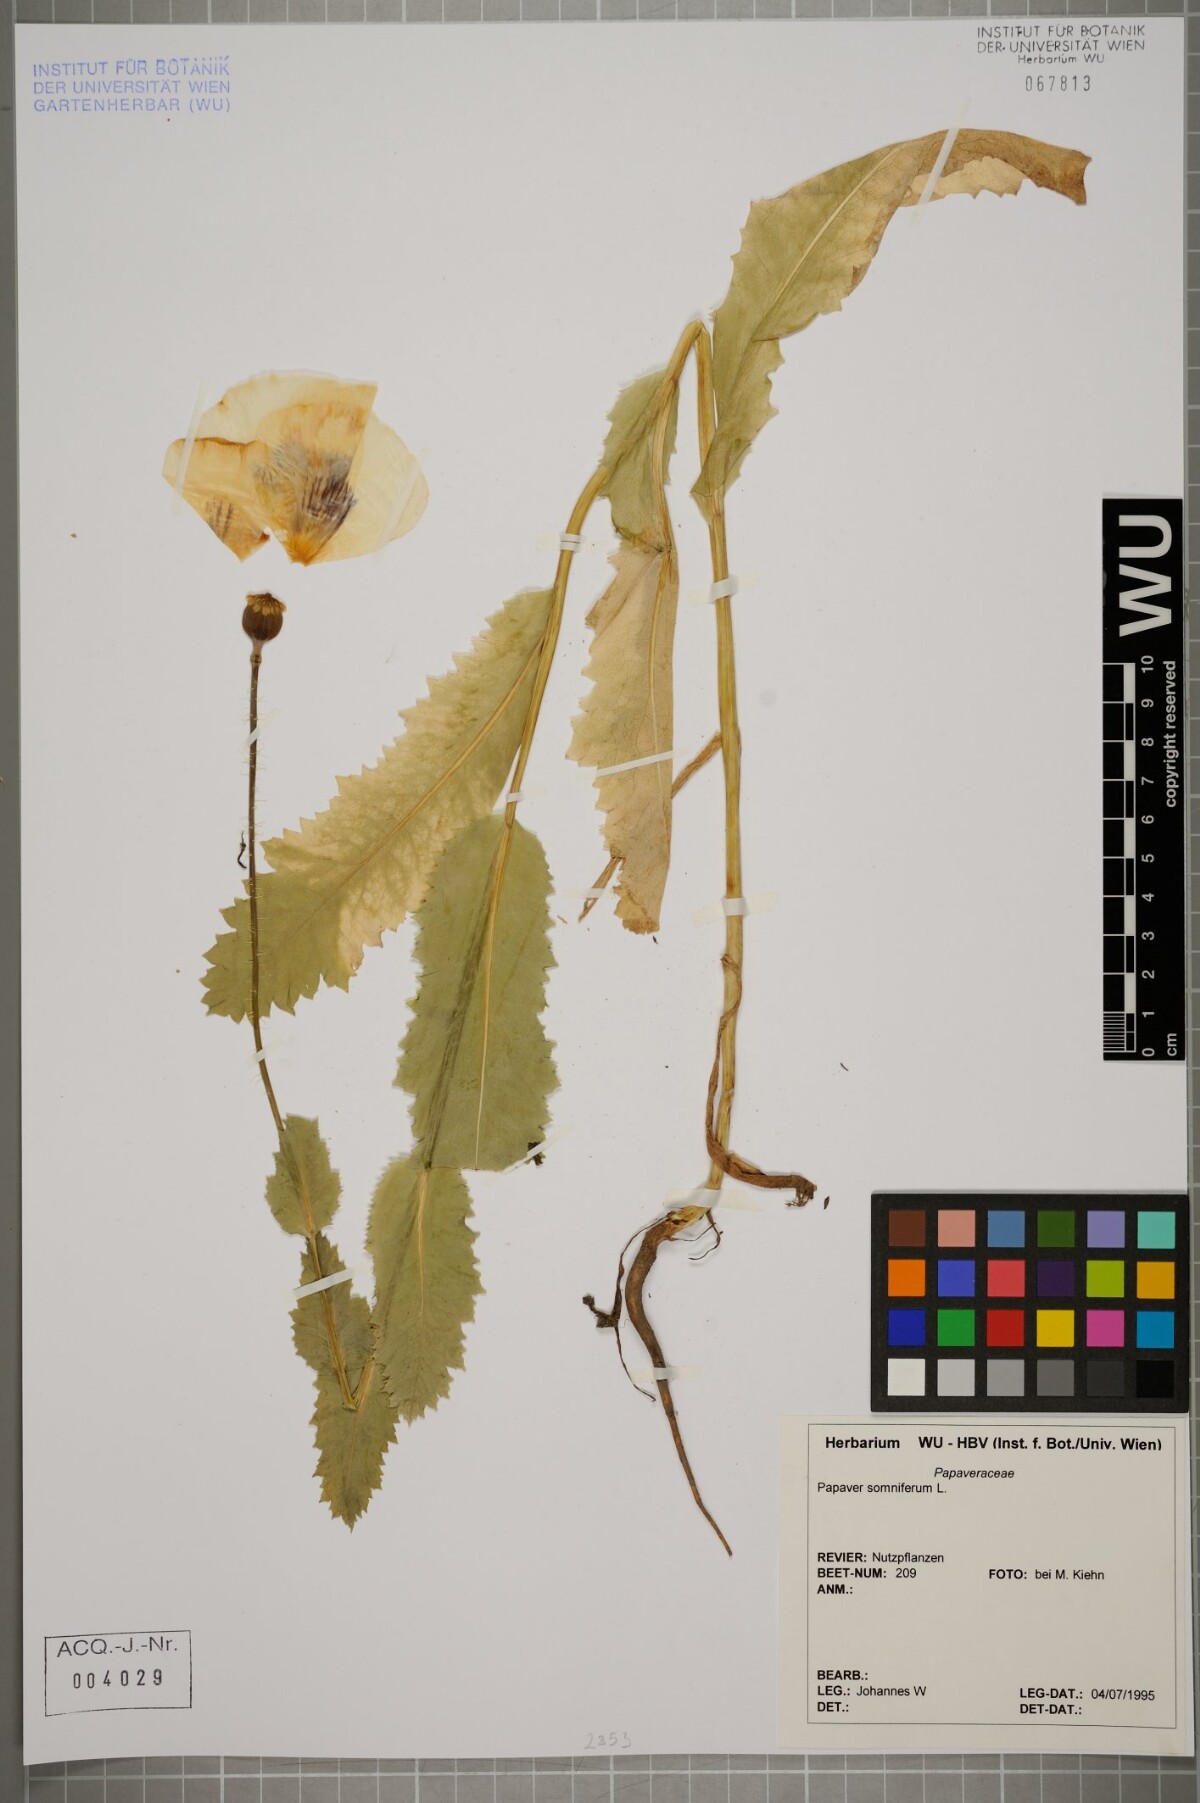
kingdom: Plantae
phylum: Tracheophyta
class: Magnoliopsida
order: Ranunculales
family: Papaveraceae
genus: Papaver
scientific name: Papaver somniferum
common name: Opium poppy
